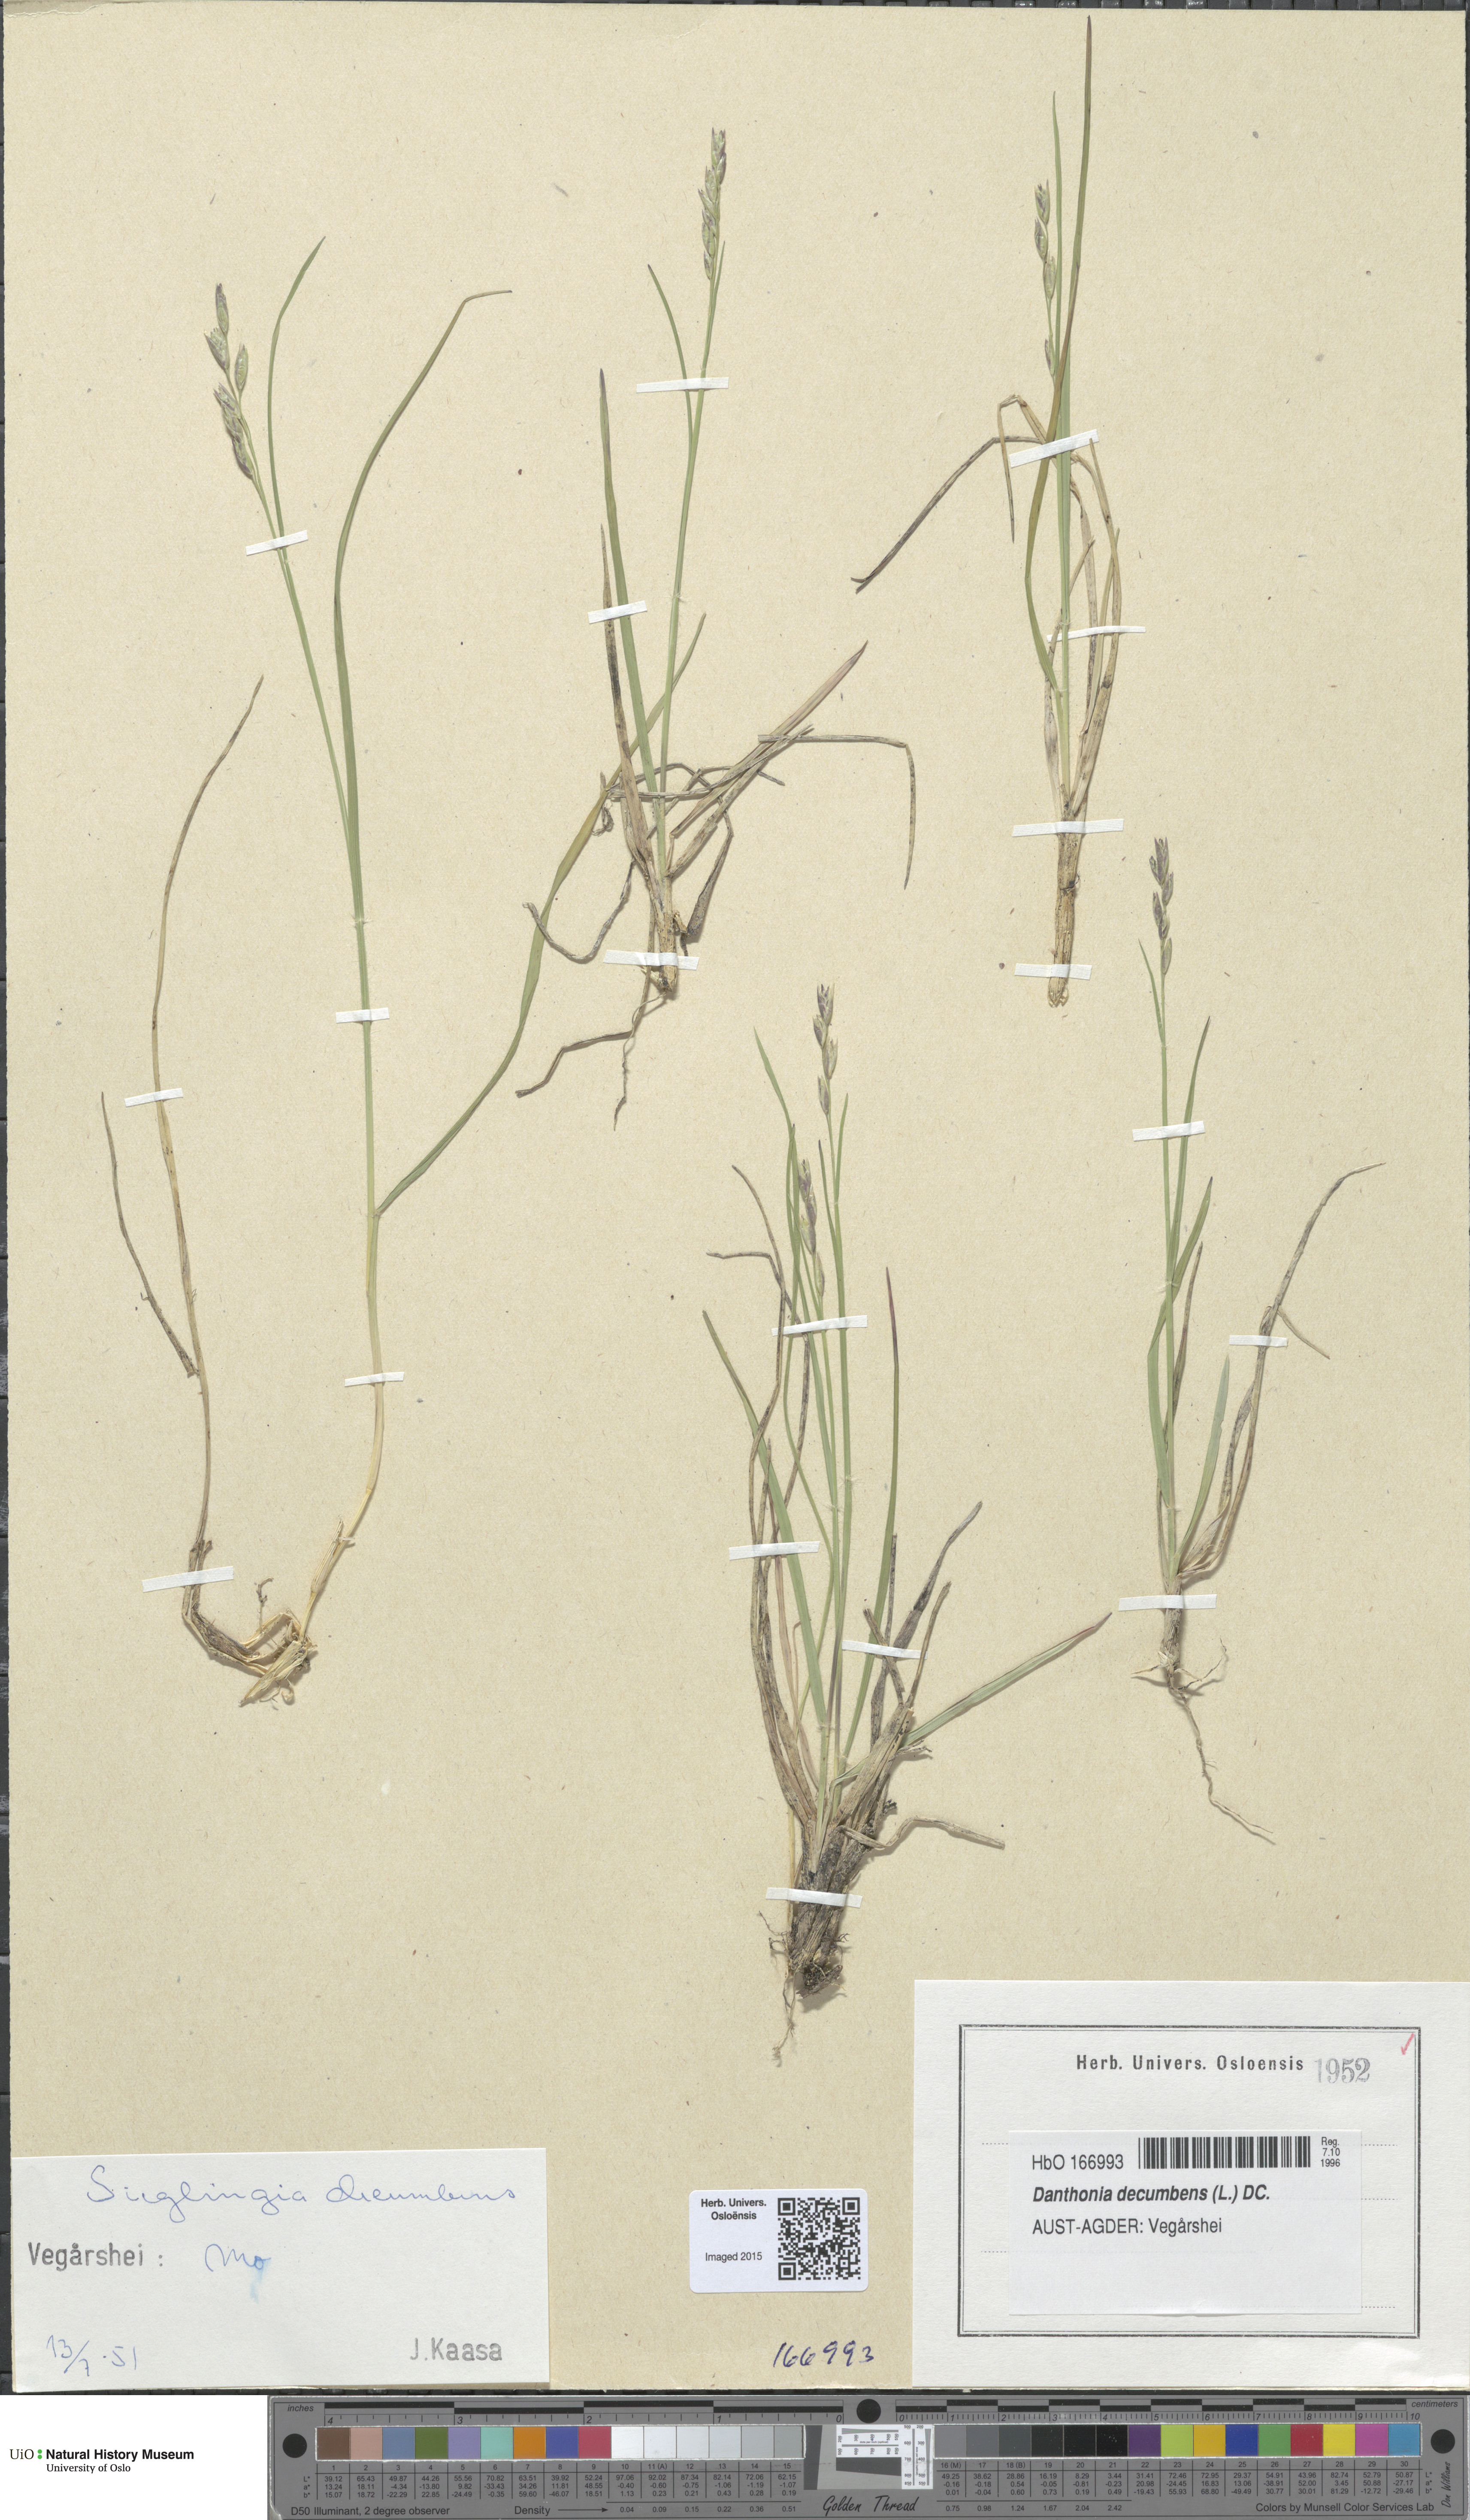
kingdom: Plantae
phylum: Tracheophyta
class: Liliopsida
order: Poales
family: Poaceae
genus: Danthonia
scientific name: Danthonia decumbens
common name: Common heathgrass
